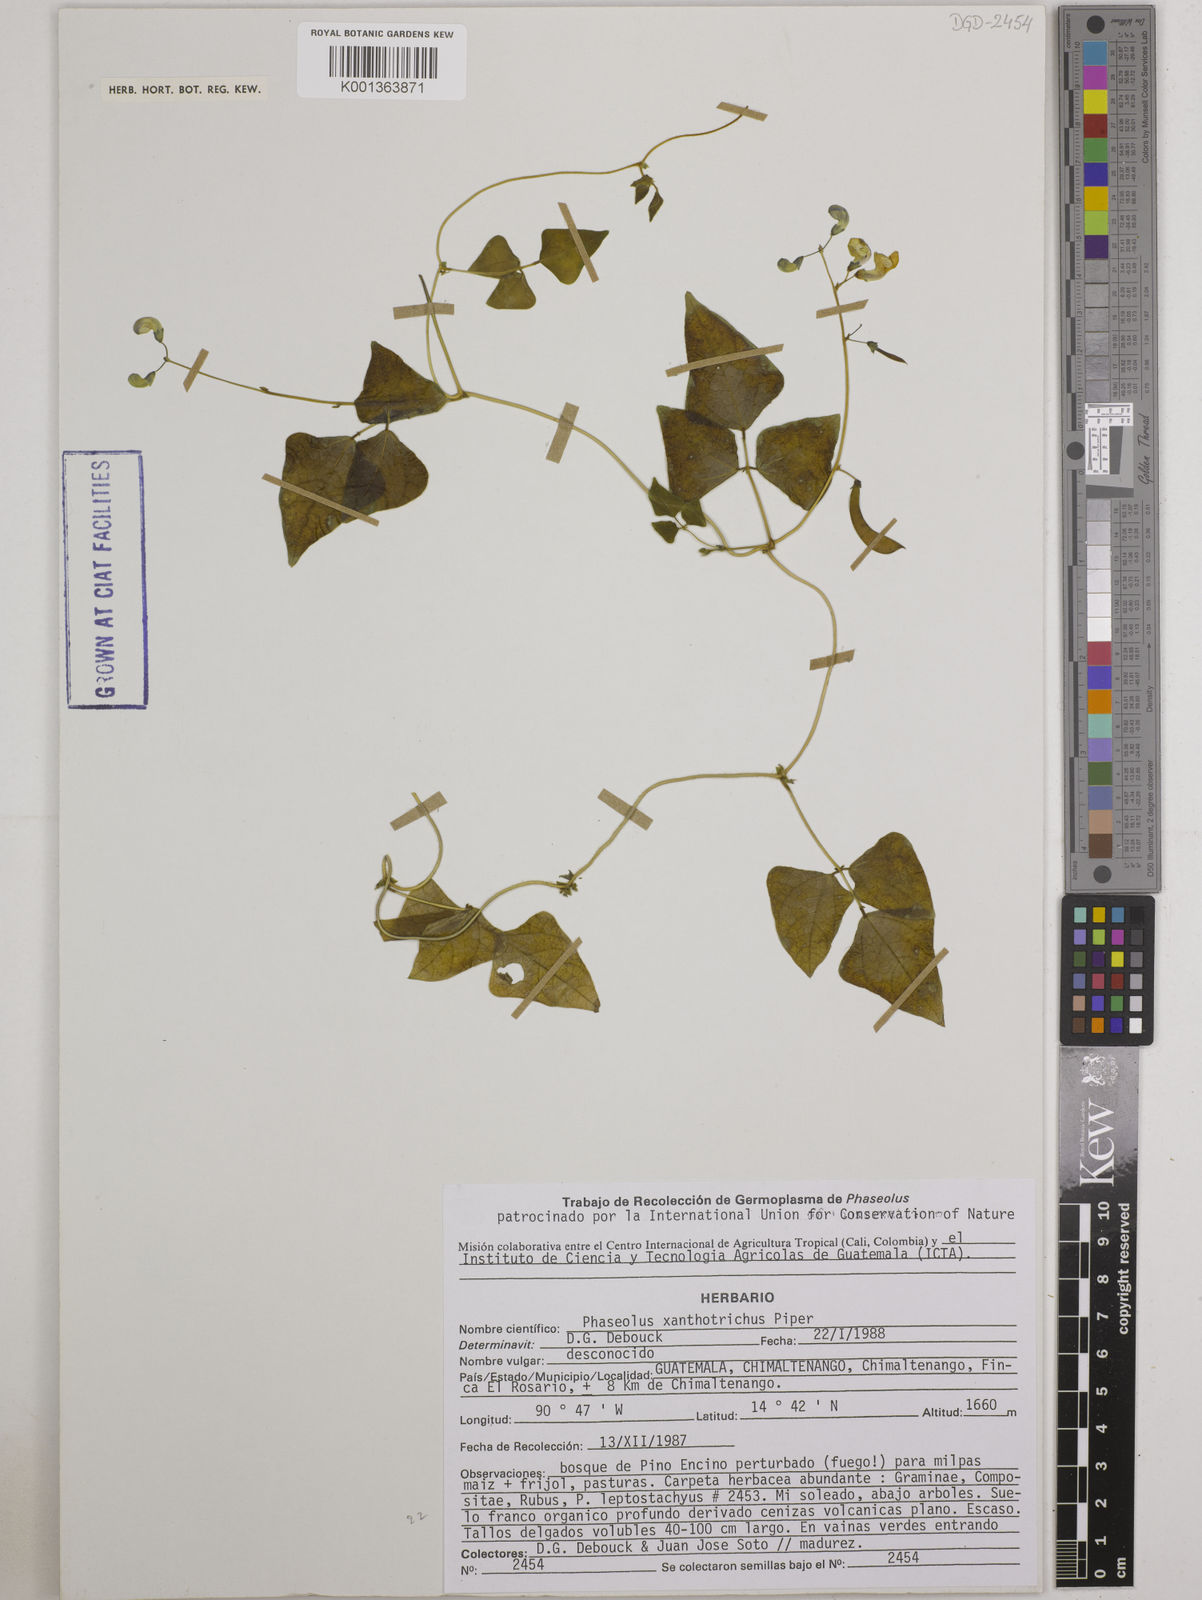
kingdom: Plantae
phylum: Tracheophyta
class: Magnoliopsida
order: Fabales
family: Fabaceae
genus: Phaseolus
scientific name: Phaseolus xanthotrichus
